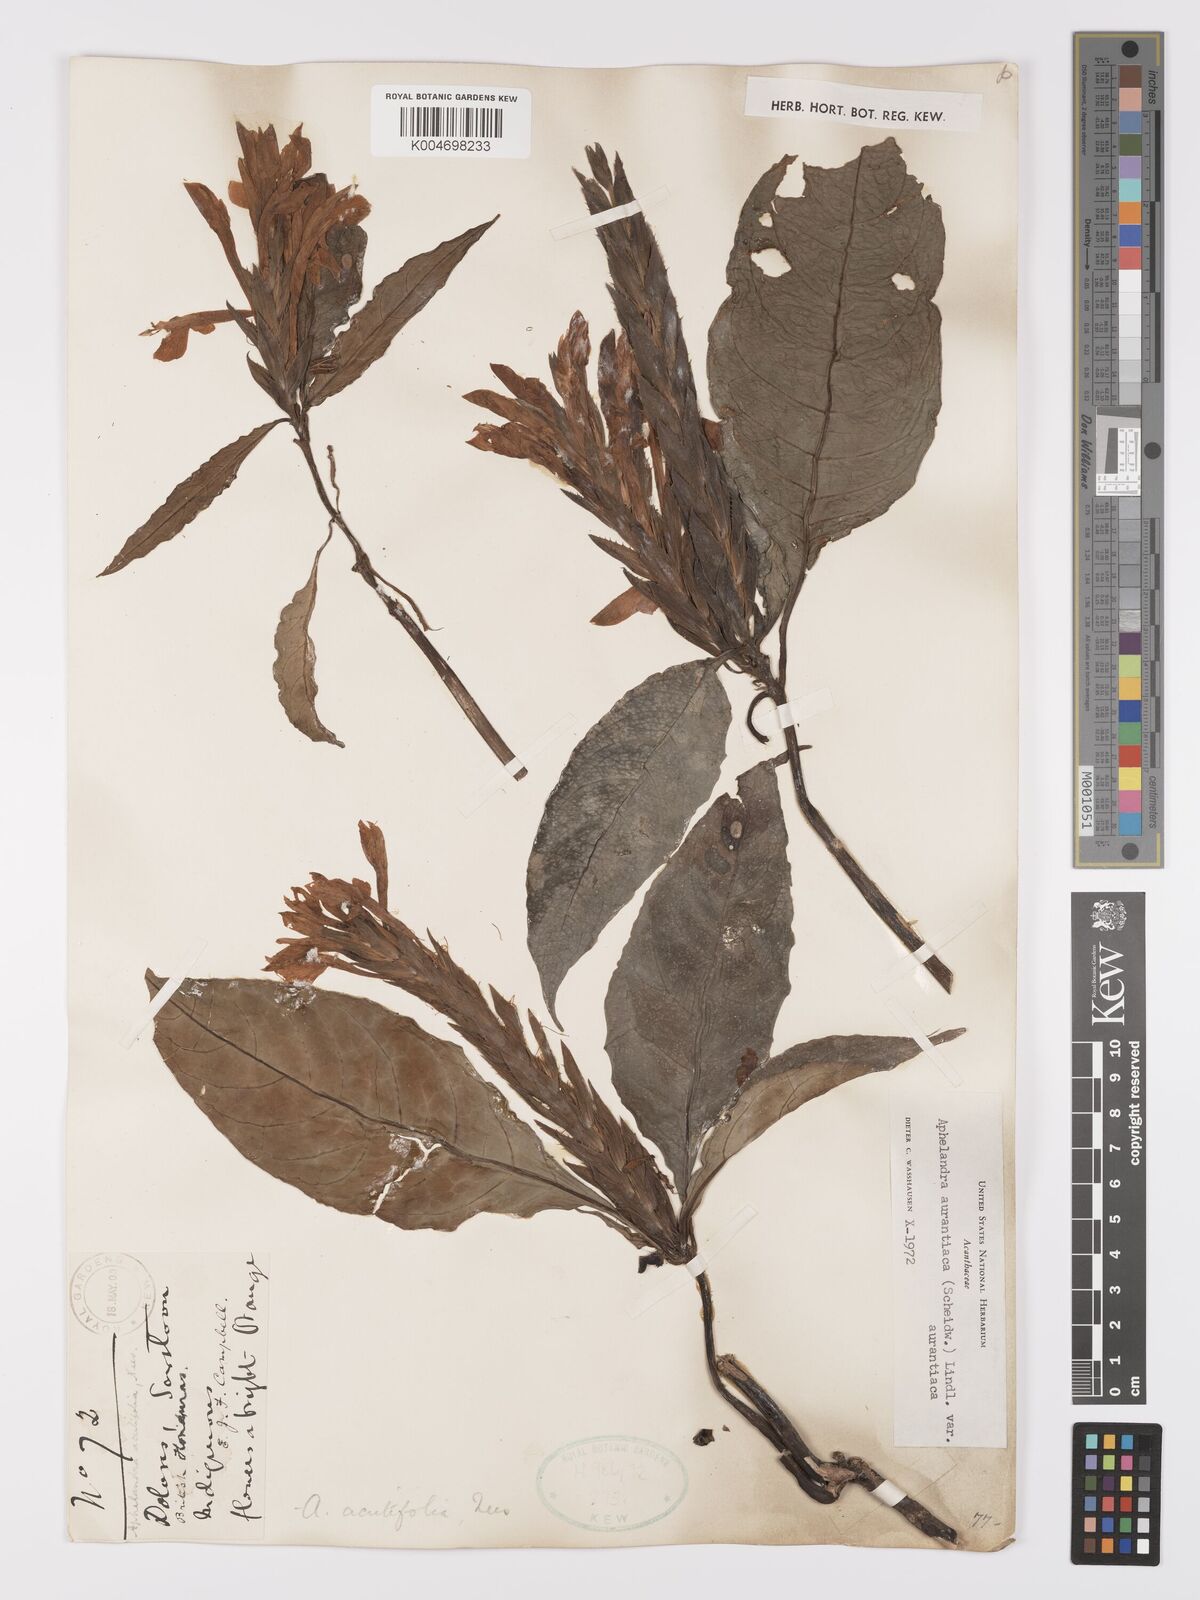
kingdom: Plantae
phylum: Tracheophyta
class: Magnoliopsida
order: Lamiales
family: Acanthaceae
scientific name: Acanthaceae
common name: Acanthaceae
